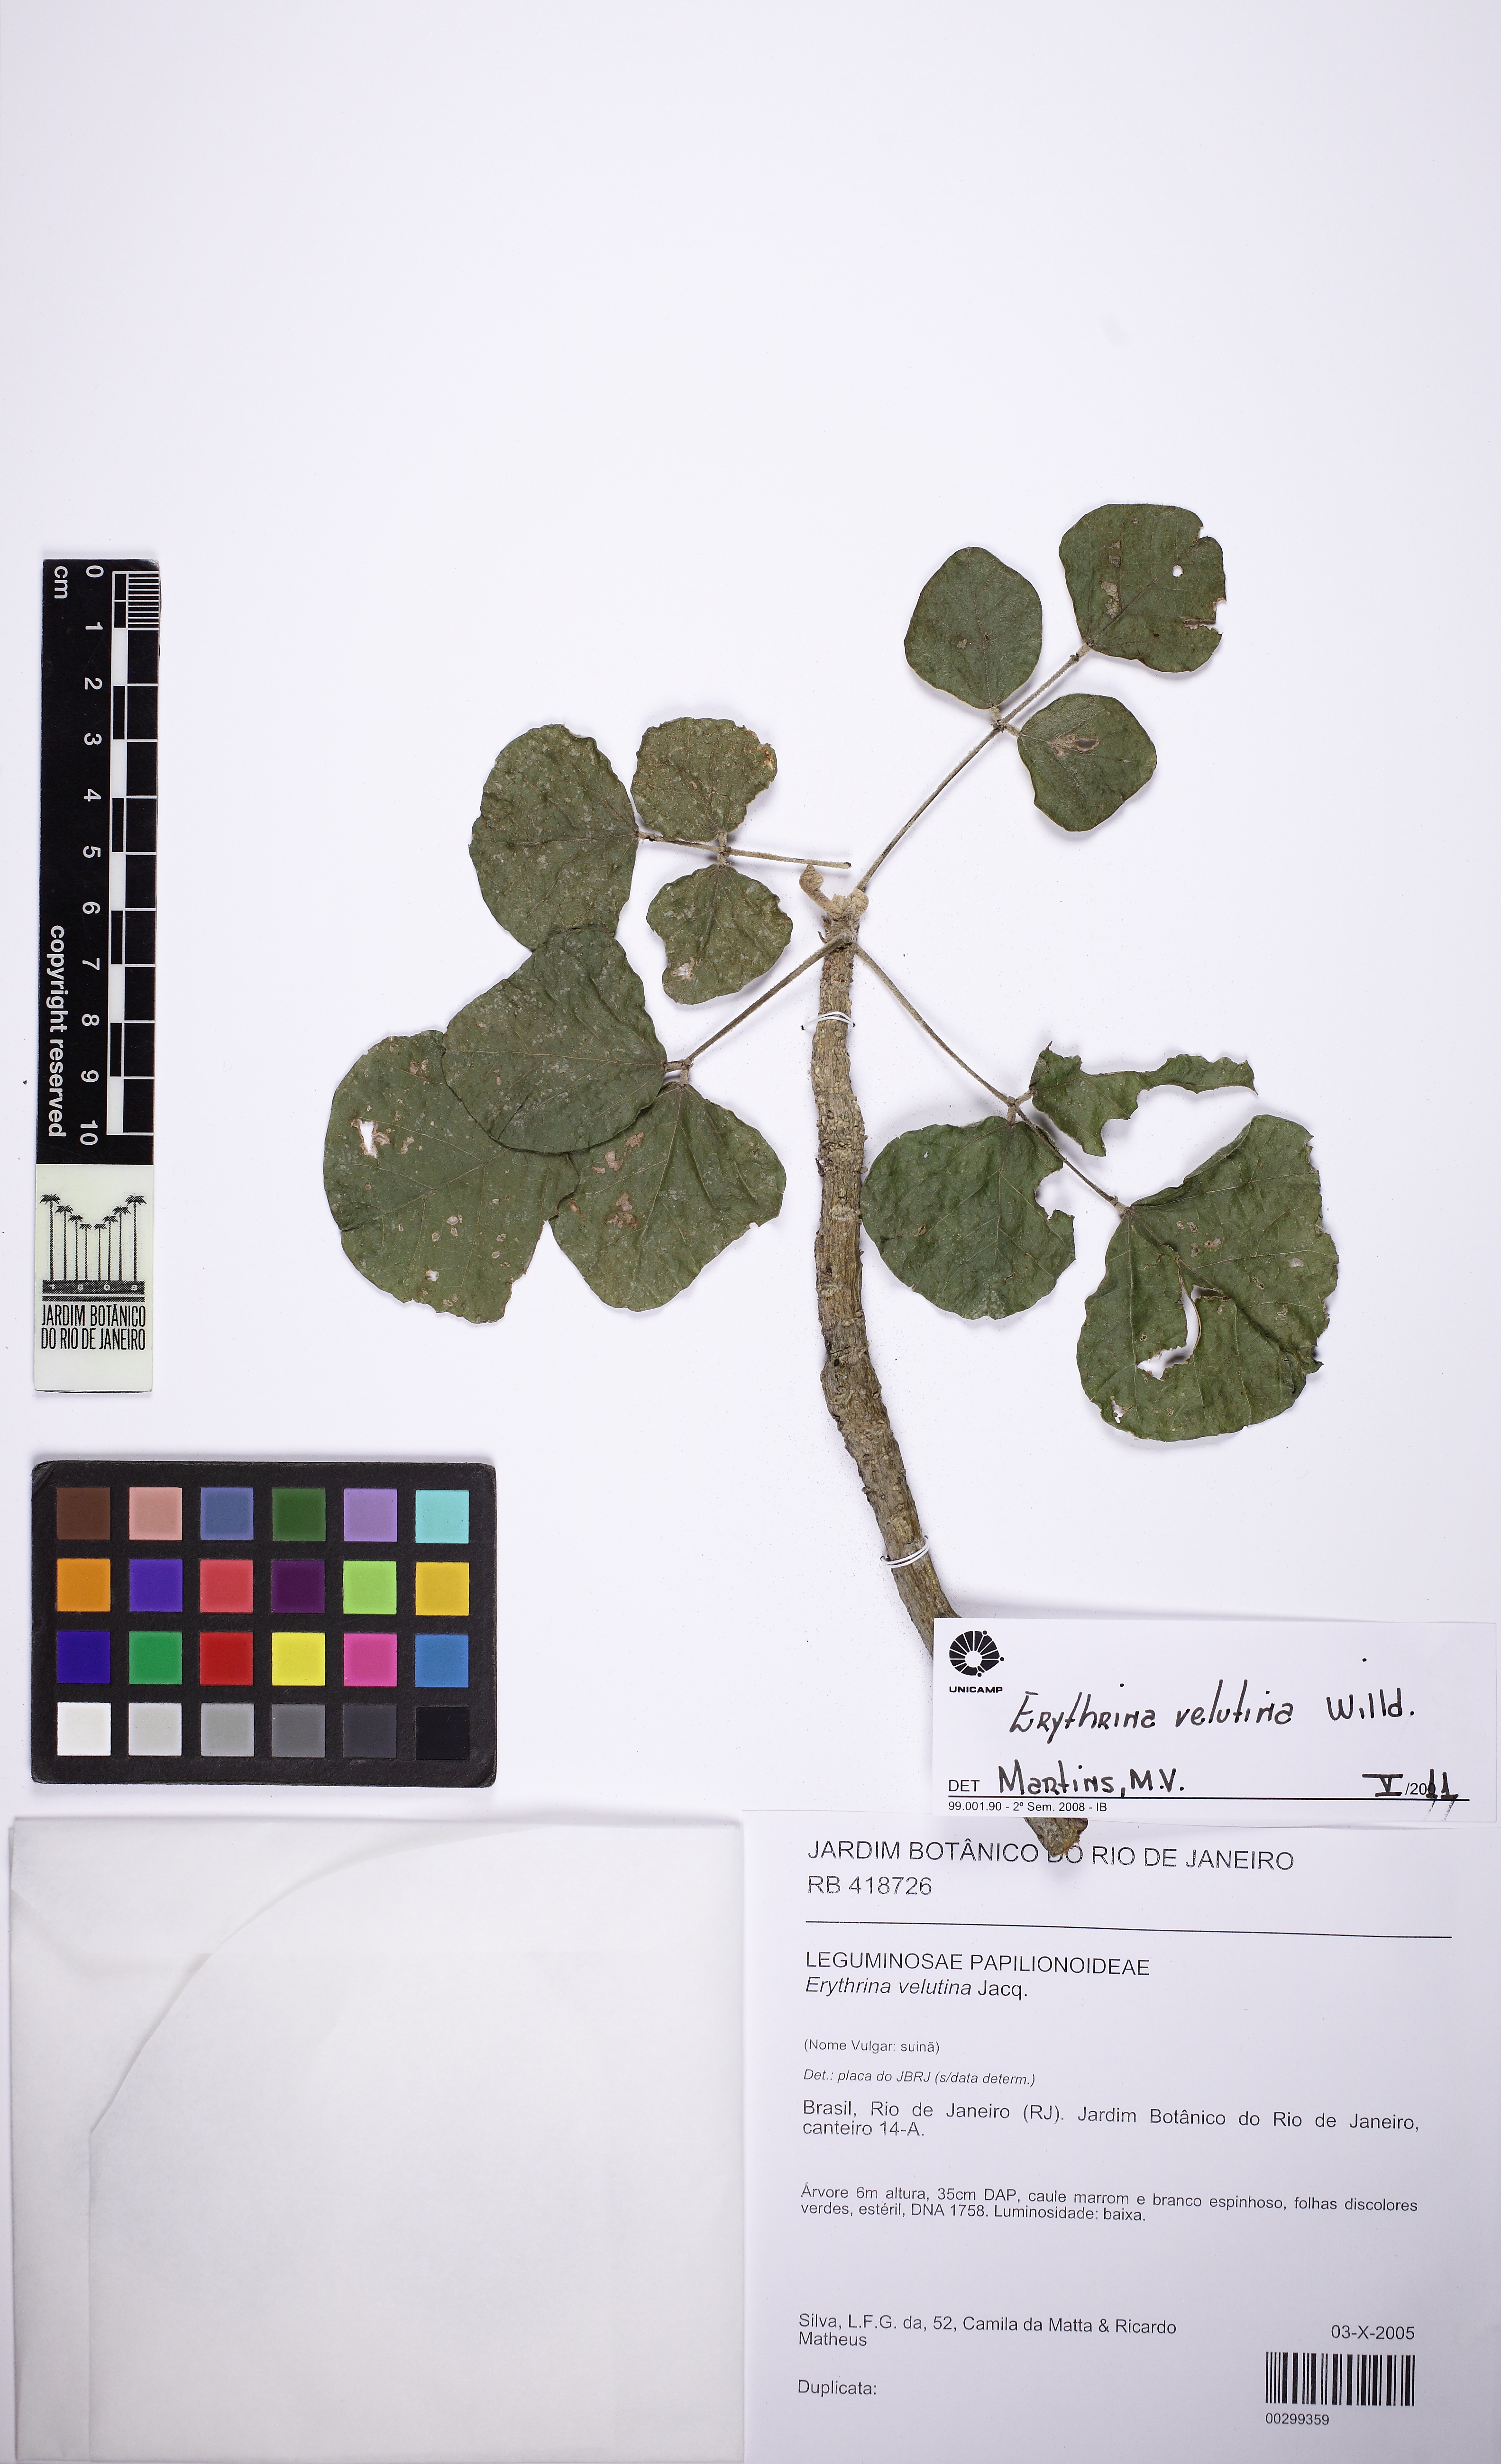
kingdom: Plantae
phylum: Tracheophyta
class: Magnoliopsida
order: Fabales
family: Fabaceae
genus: Erythrina
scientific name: Erythrina velutina
